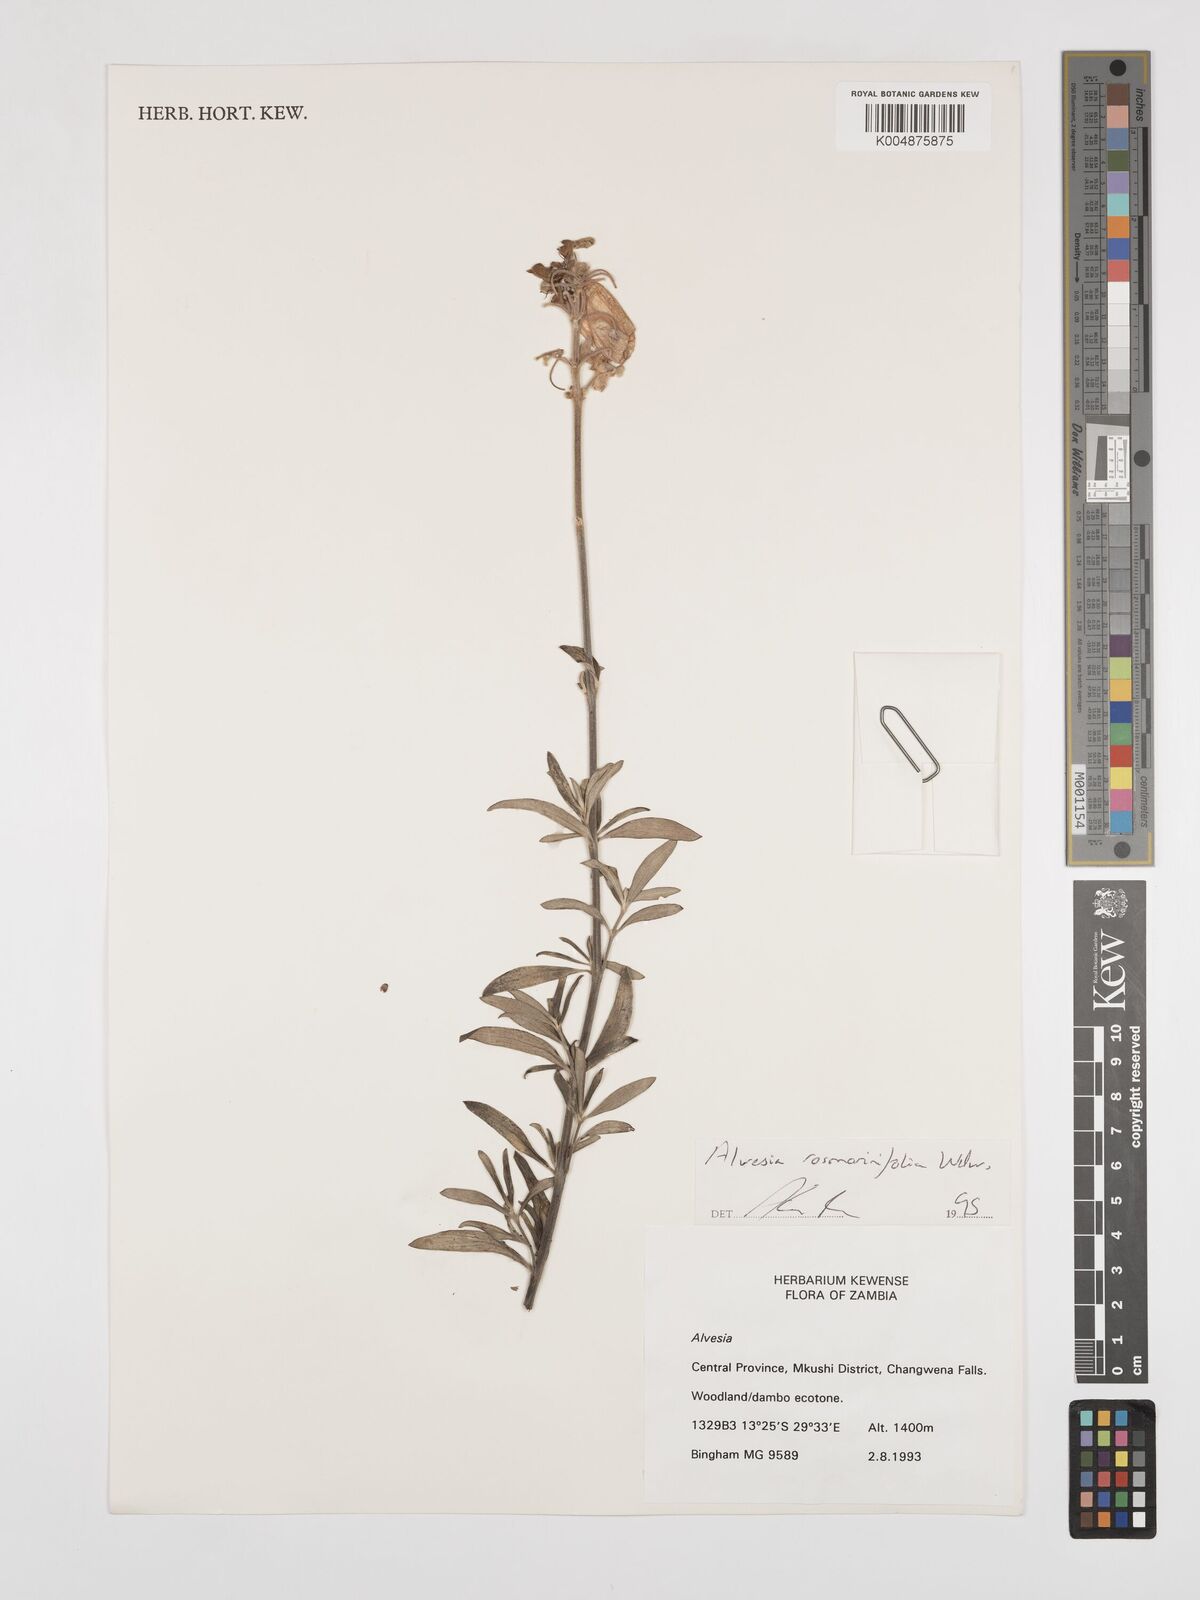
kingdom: Plantae
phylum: Tracheophyta
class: Magnoliopsida
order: Lamiales
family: Lamiaceae
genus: Alvesia
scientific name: Alvesia rosmarinifolia
